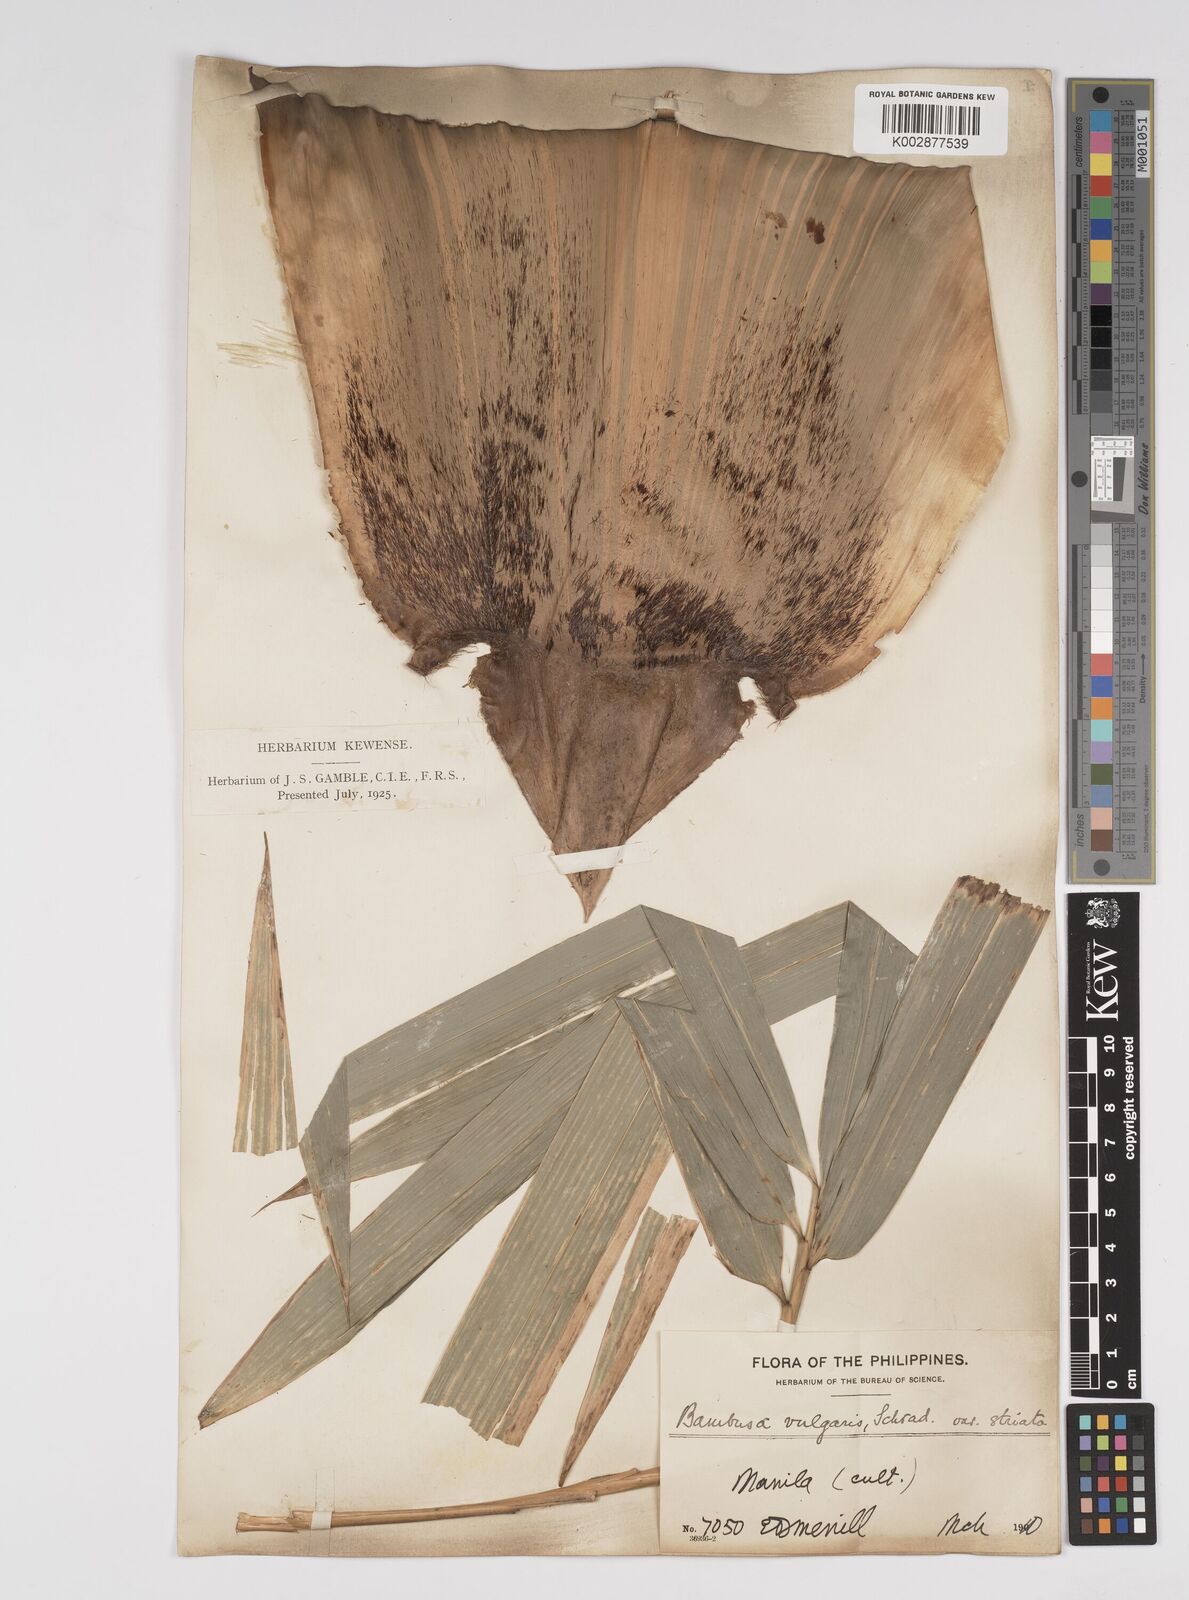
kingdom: Plantae
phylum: Tracheophyta
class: Liliopsida
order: Poales
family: Poaceae
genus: Bambusa
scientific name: Bambusa vulgaris
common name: Common bamboo
